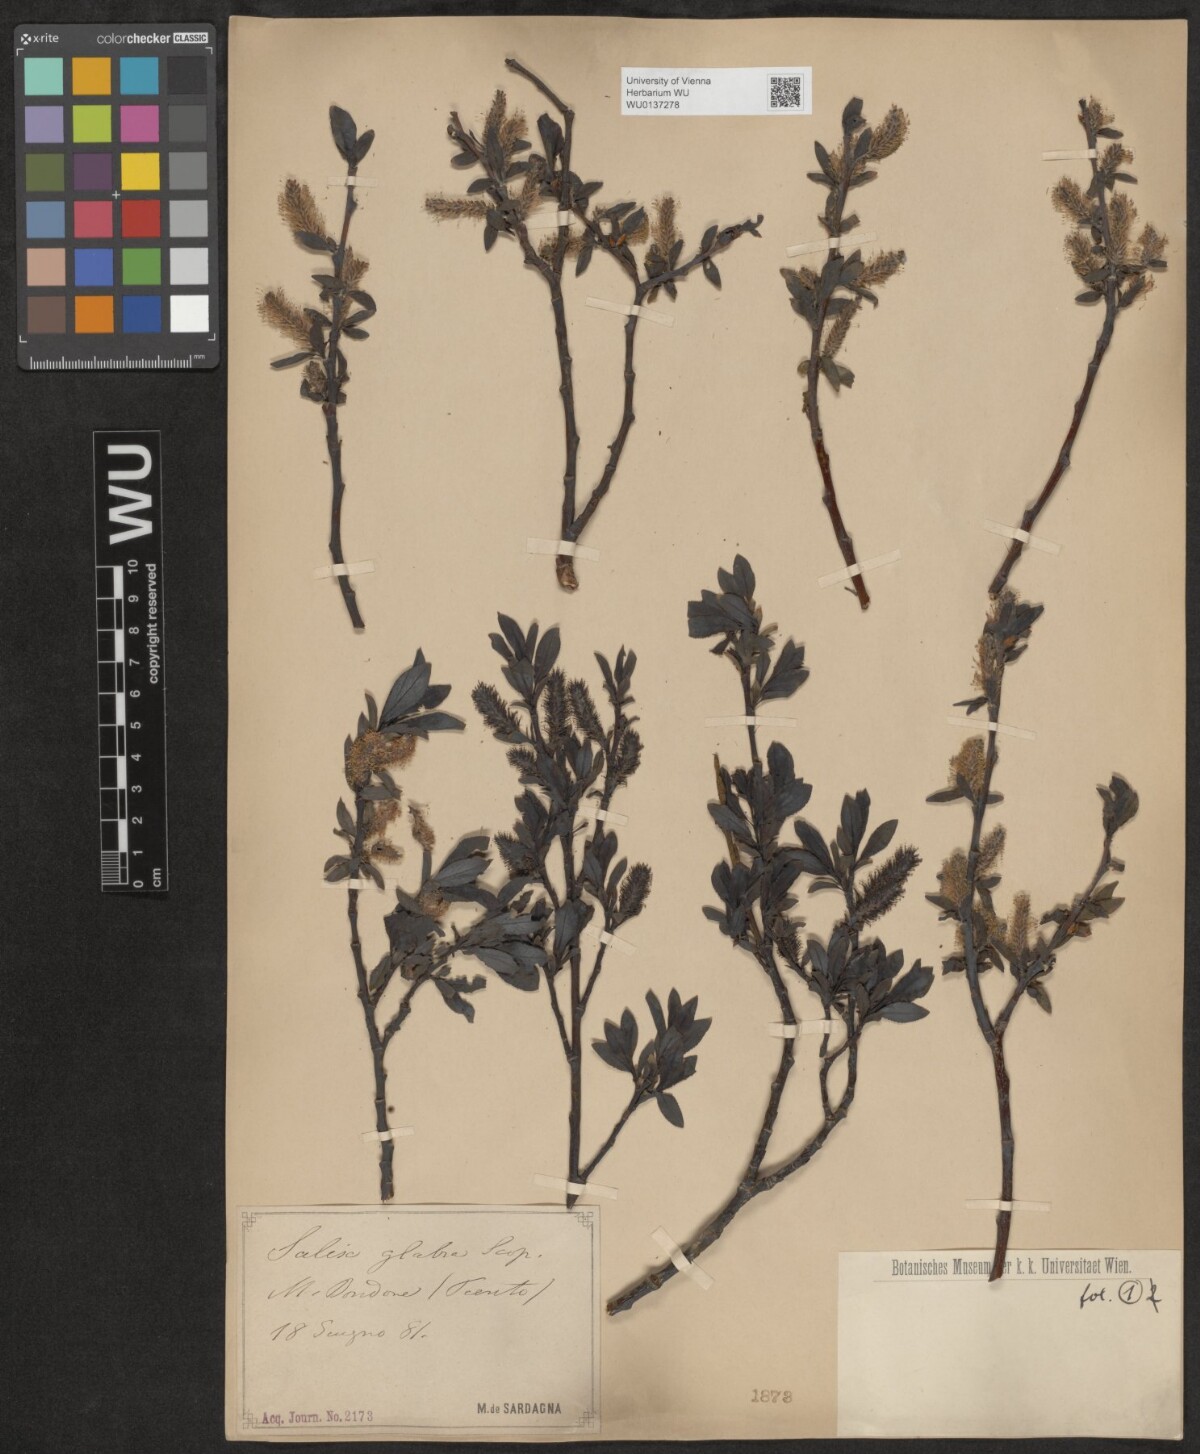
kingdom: Plantae
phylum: Tracheophyta
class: Magnoliopsida
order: Malpighiales
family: Salicaceae
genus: Salix
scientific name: Salix glabra
